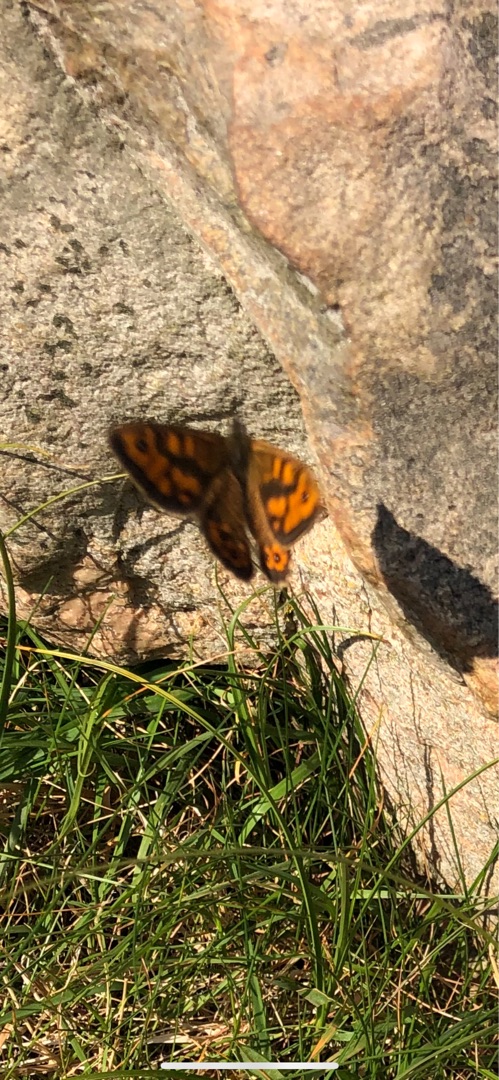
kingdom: Animalia
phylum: Arthropoda
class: Insecta
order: Lepidoptera
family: Nymphalidae
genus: Pararge
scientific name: Pararge Lasiommata megera
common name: Vejrandøje
